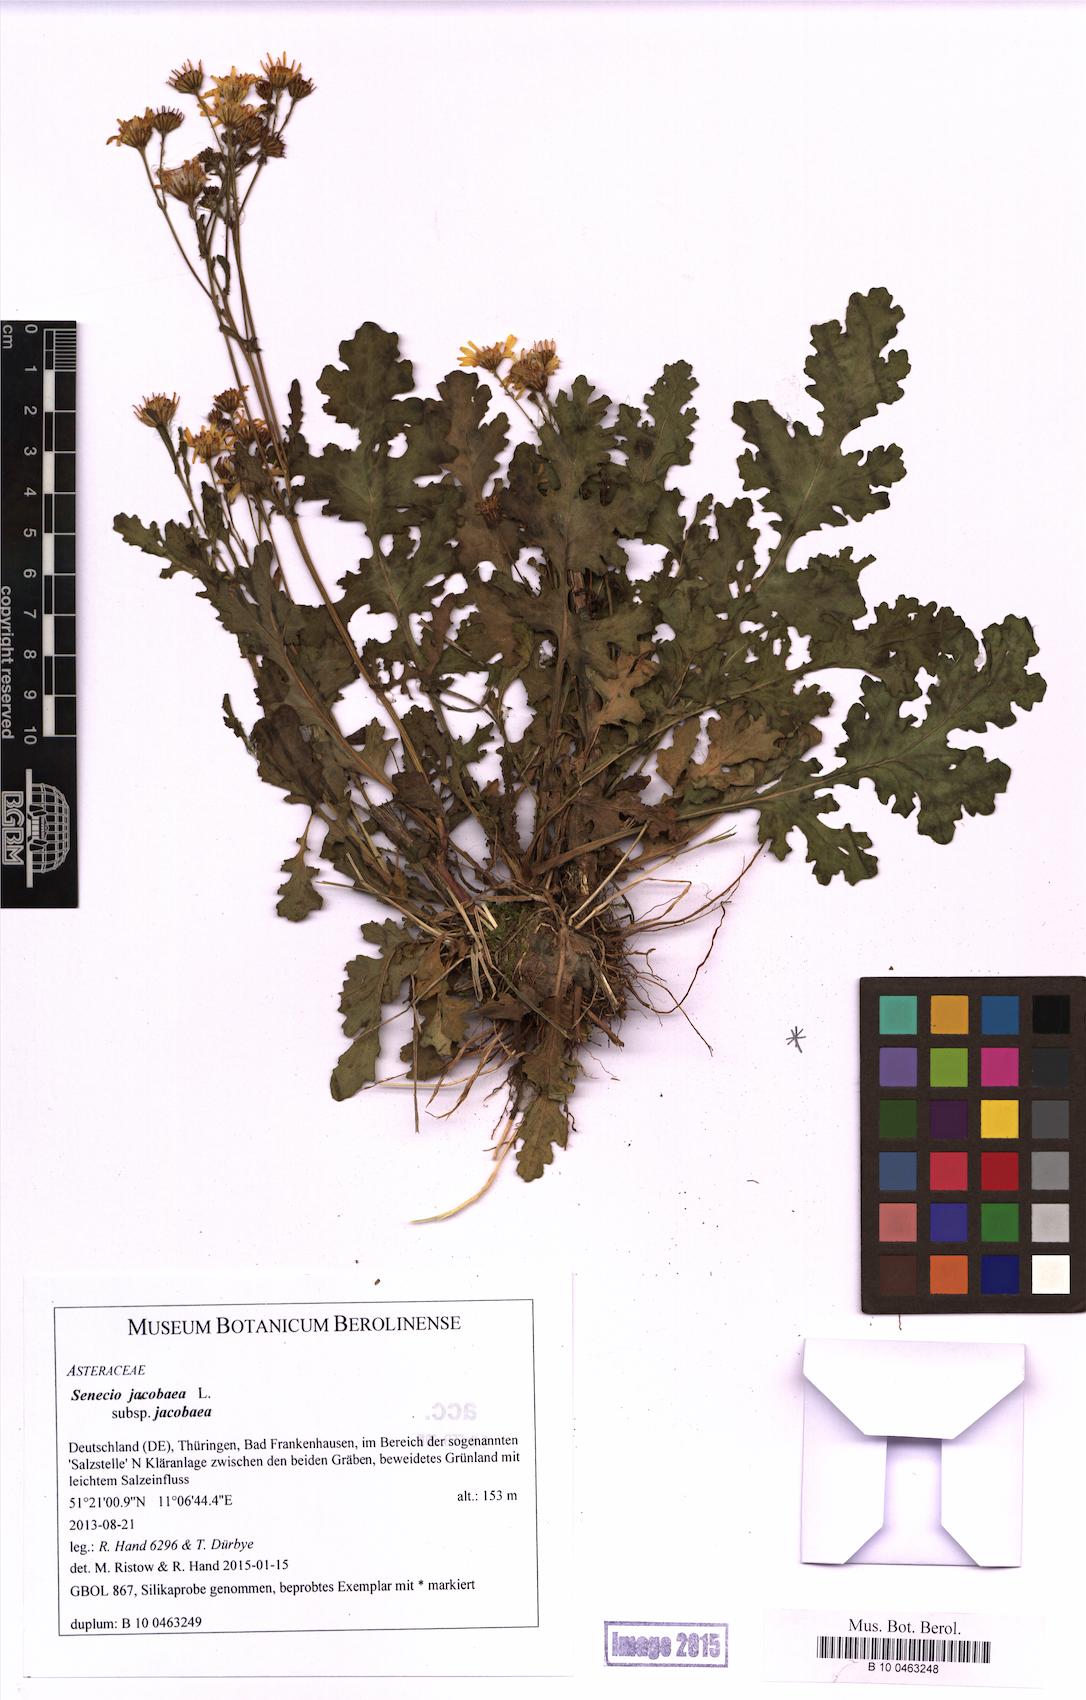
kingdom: Plantae
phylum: Tracheophyta
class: Magnoliopsida
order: Asterales
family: Asteraceae
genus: Jacobaea
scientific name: Jacobaea vulgaris
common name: Stinking willie
